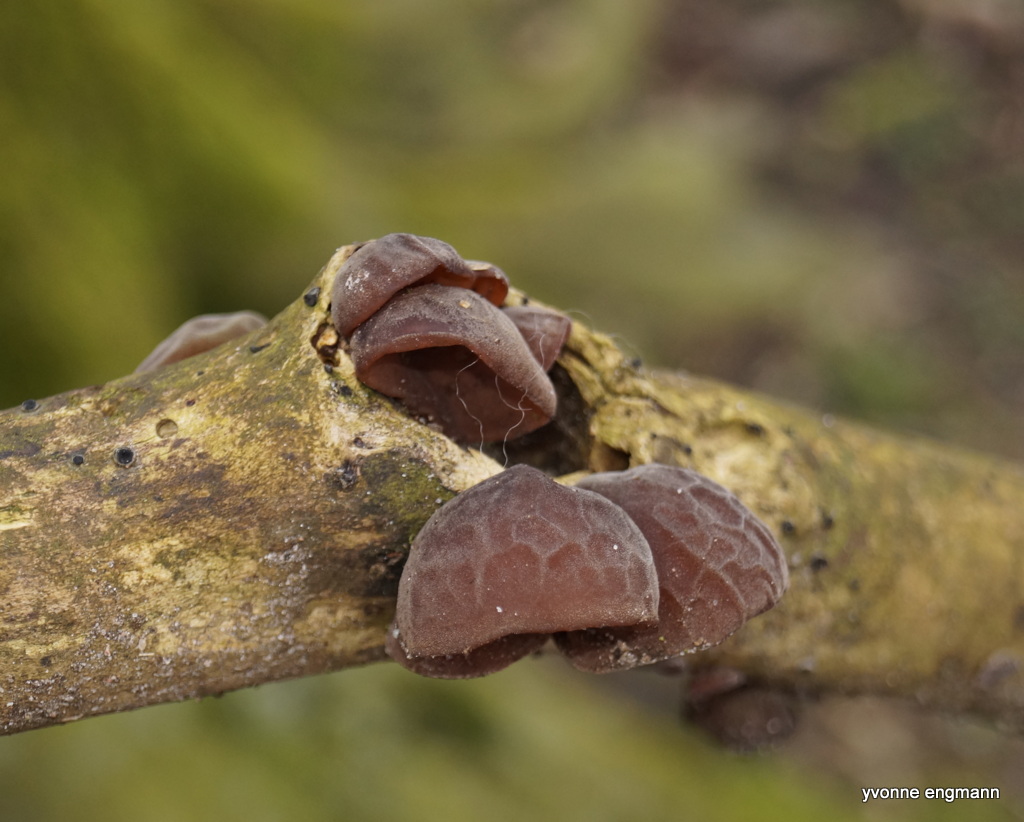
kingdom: Fungi
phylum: Basidiomycota
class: Agaricomycetes
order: Auriculariales
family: Auriculariaceae
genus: Auricularia
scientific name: Auricularia auricula-judae
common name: almindelig judasøre
